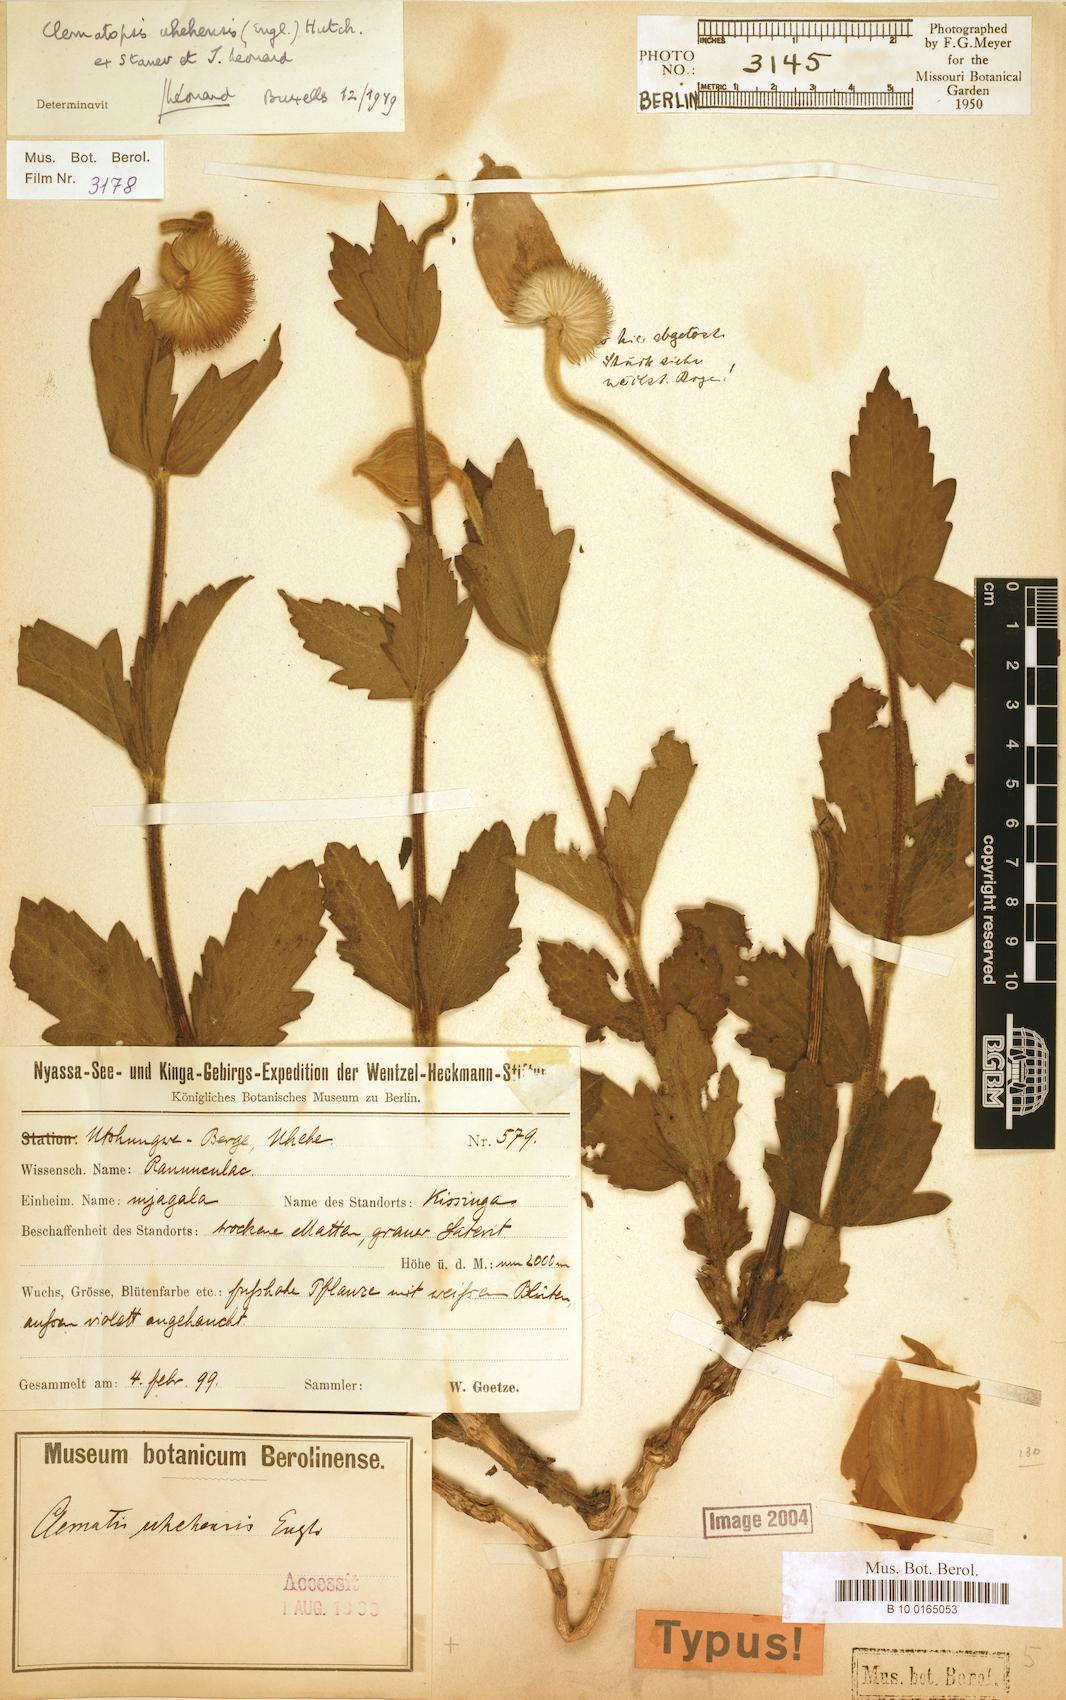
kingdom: Plantae
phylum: Tracheophyta
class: Magnoliopsida
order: Ranunculales
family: Ranunculaceae
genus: Clematis
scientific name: Clematis uhehensis
